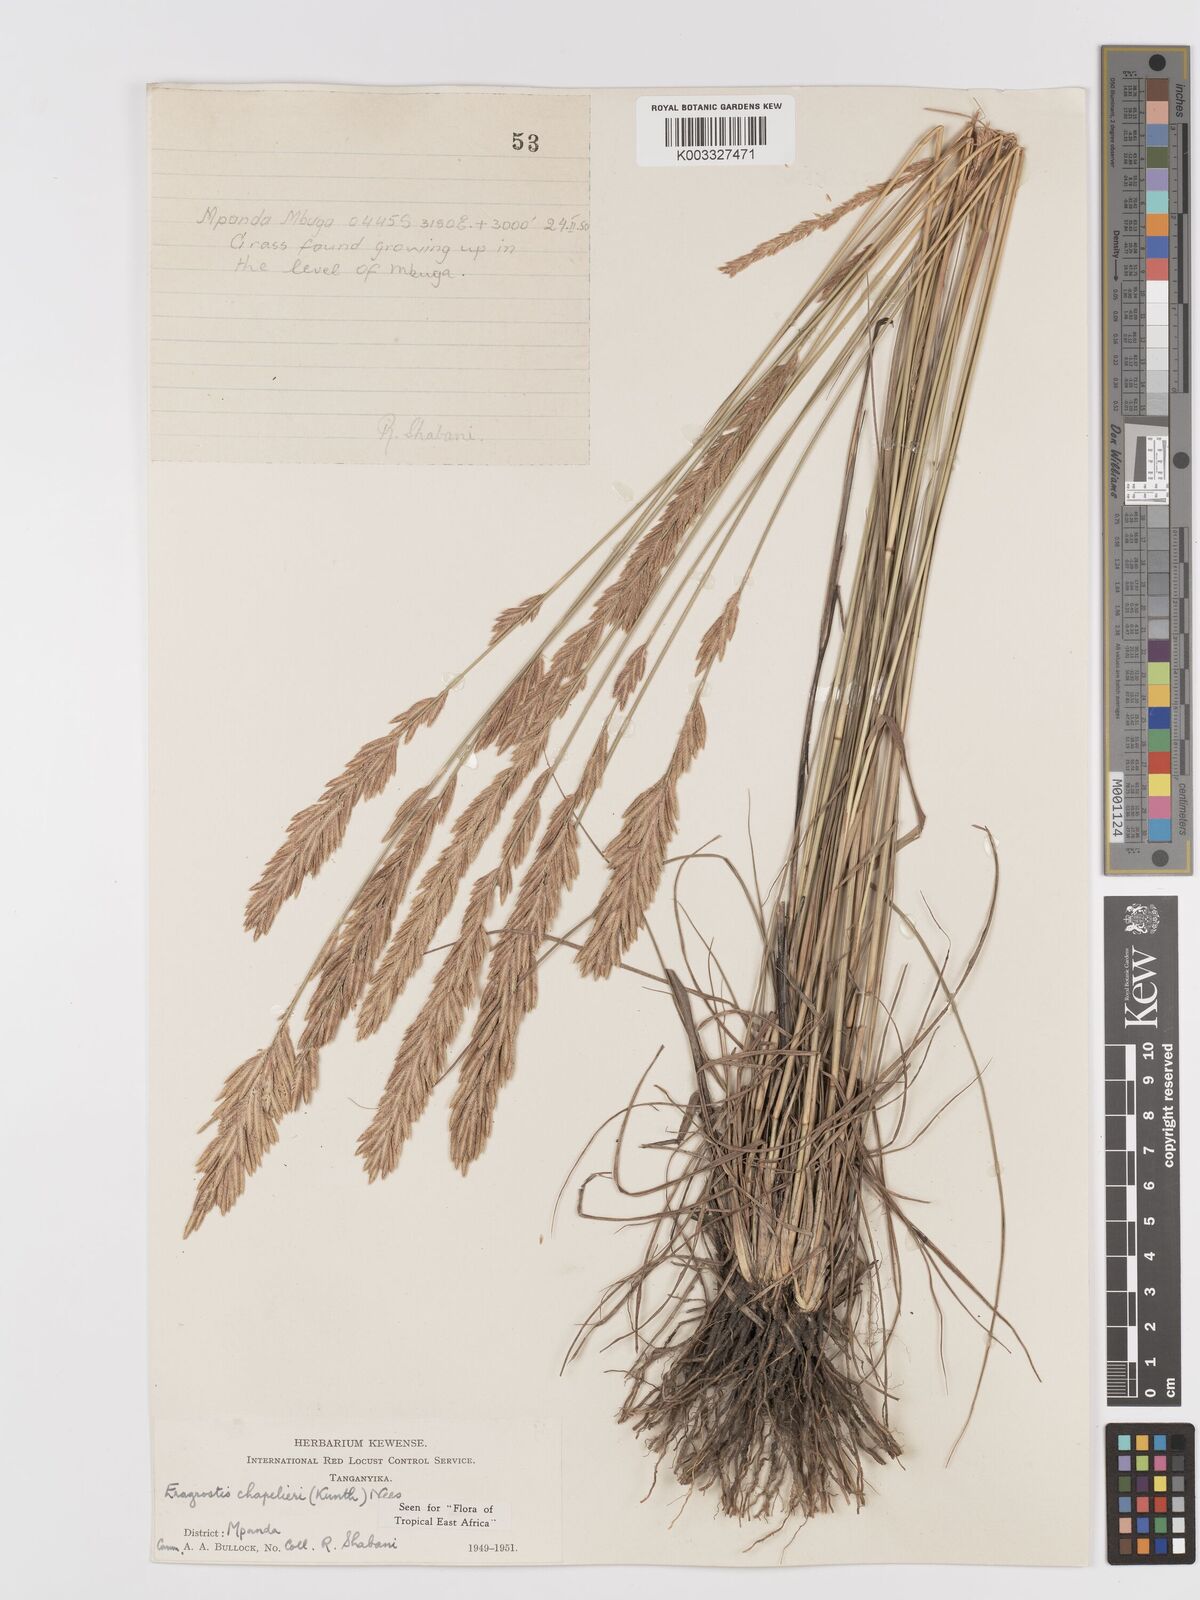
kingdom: Plantae
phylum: Tracheophyta
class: Liliopsida
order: Poales
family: Poaceae
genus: Eragrostis
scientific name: Eragrostis chapelieri
